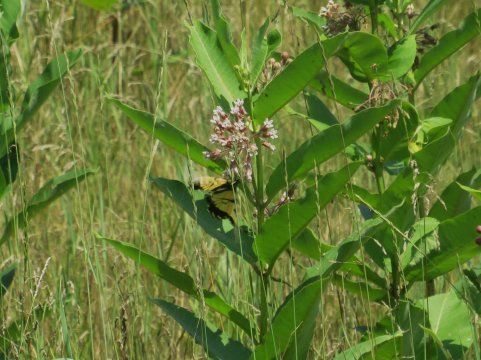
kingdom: Animalia
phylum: Arthropoda
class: Insecta
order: Lepidoptera
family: Papilionidae
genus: Pterourus
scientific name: Pterourus glaucus
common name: Eastern Tiger Swallowtail
